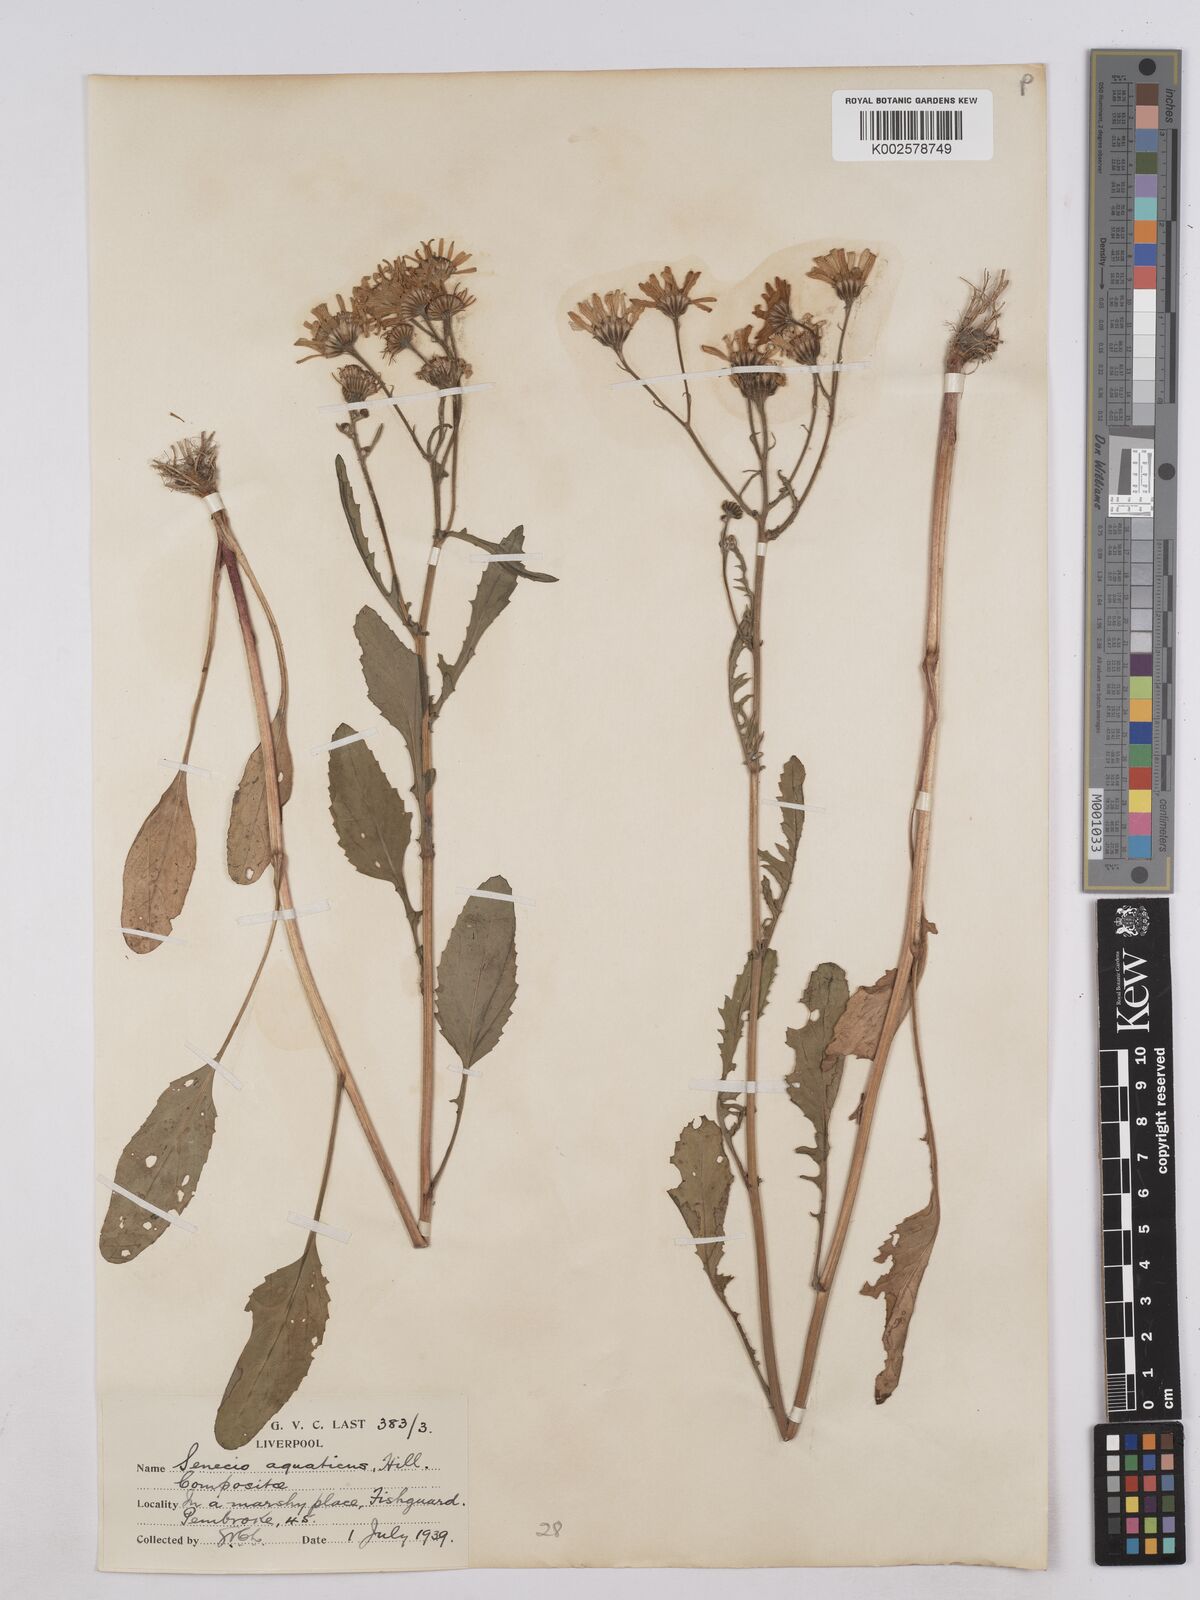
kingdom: Plantae
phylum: Tracheophyta
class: Magnoliopsida
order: Asterales
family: Asteraceae
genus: Jacobaea
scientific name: Jacobaea aquatica
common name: Water ragwort
